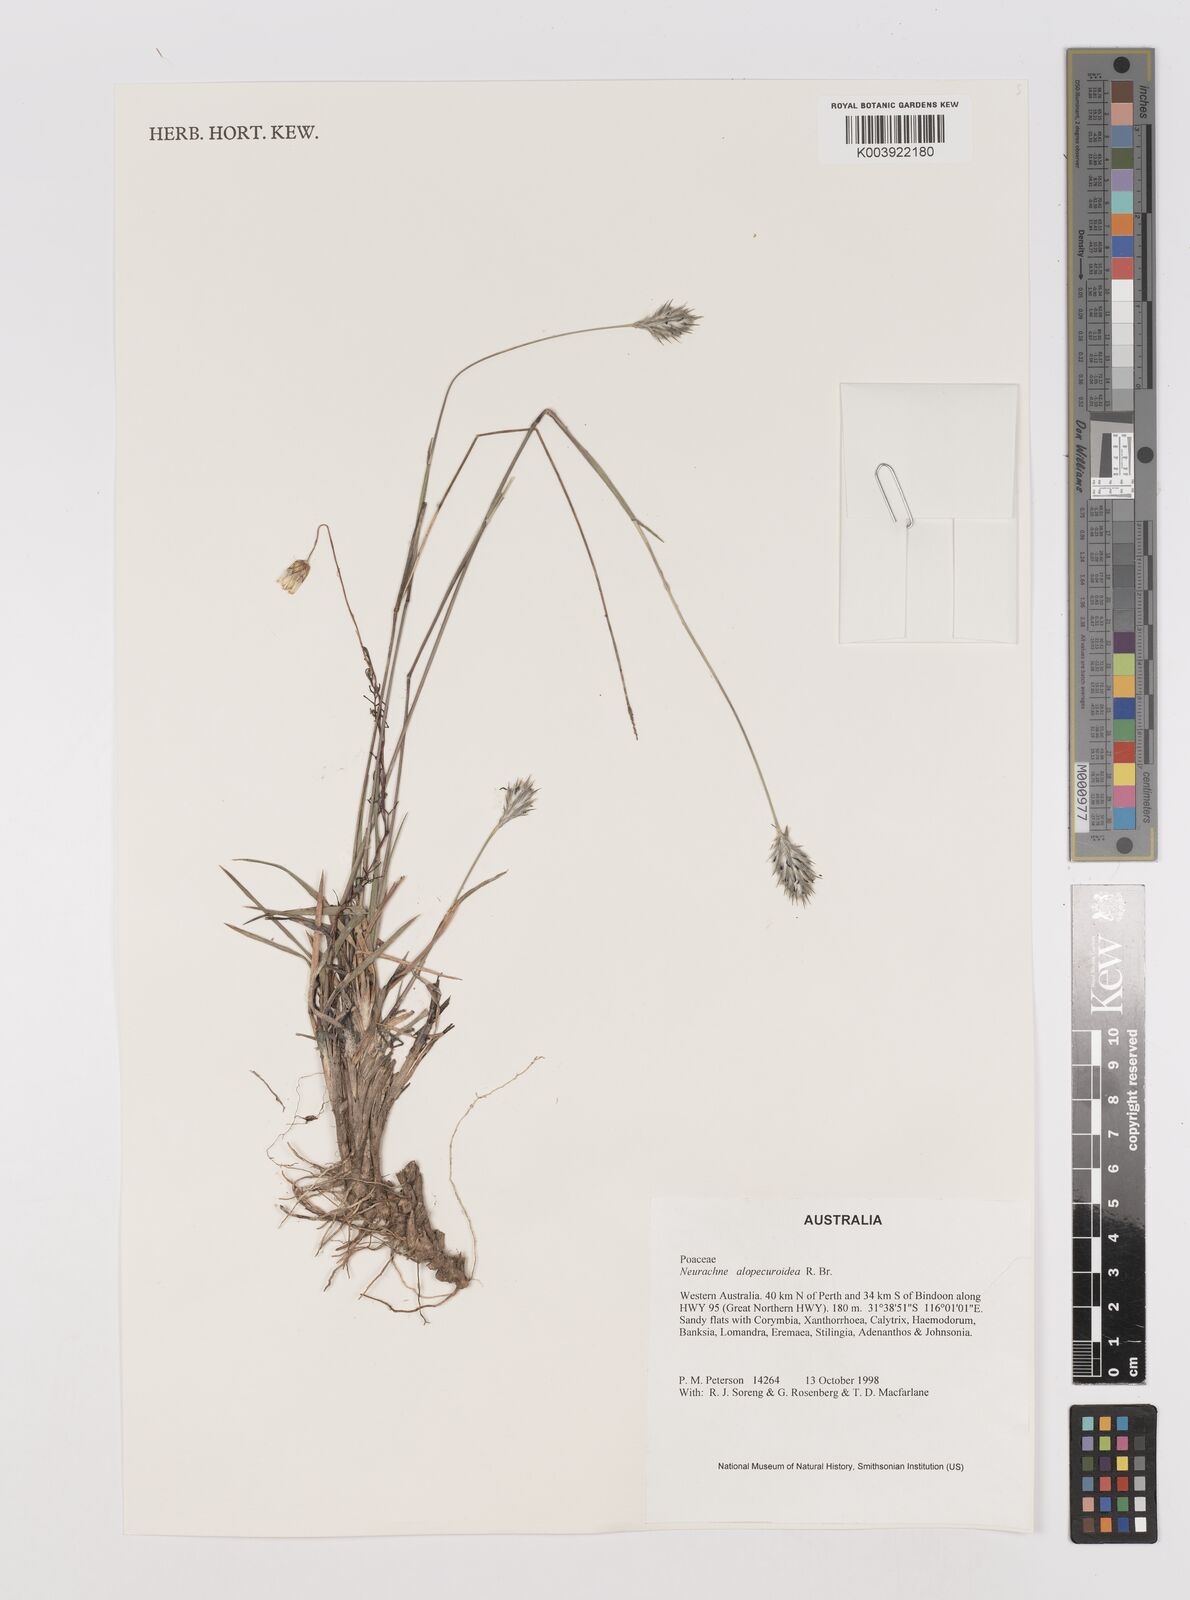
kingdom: Plantae
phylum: Tracheophyta
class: Liliopsida
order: Poales
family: Poaceae
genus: Neurachne
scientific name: Neurachne alopecuroidea
